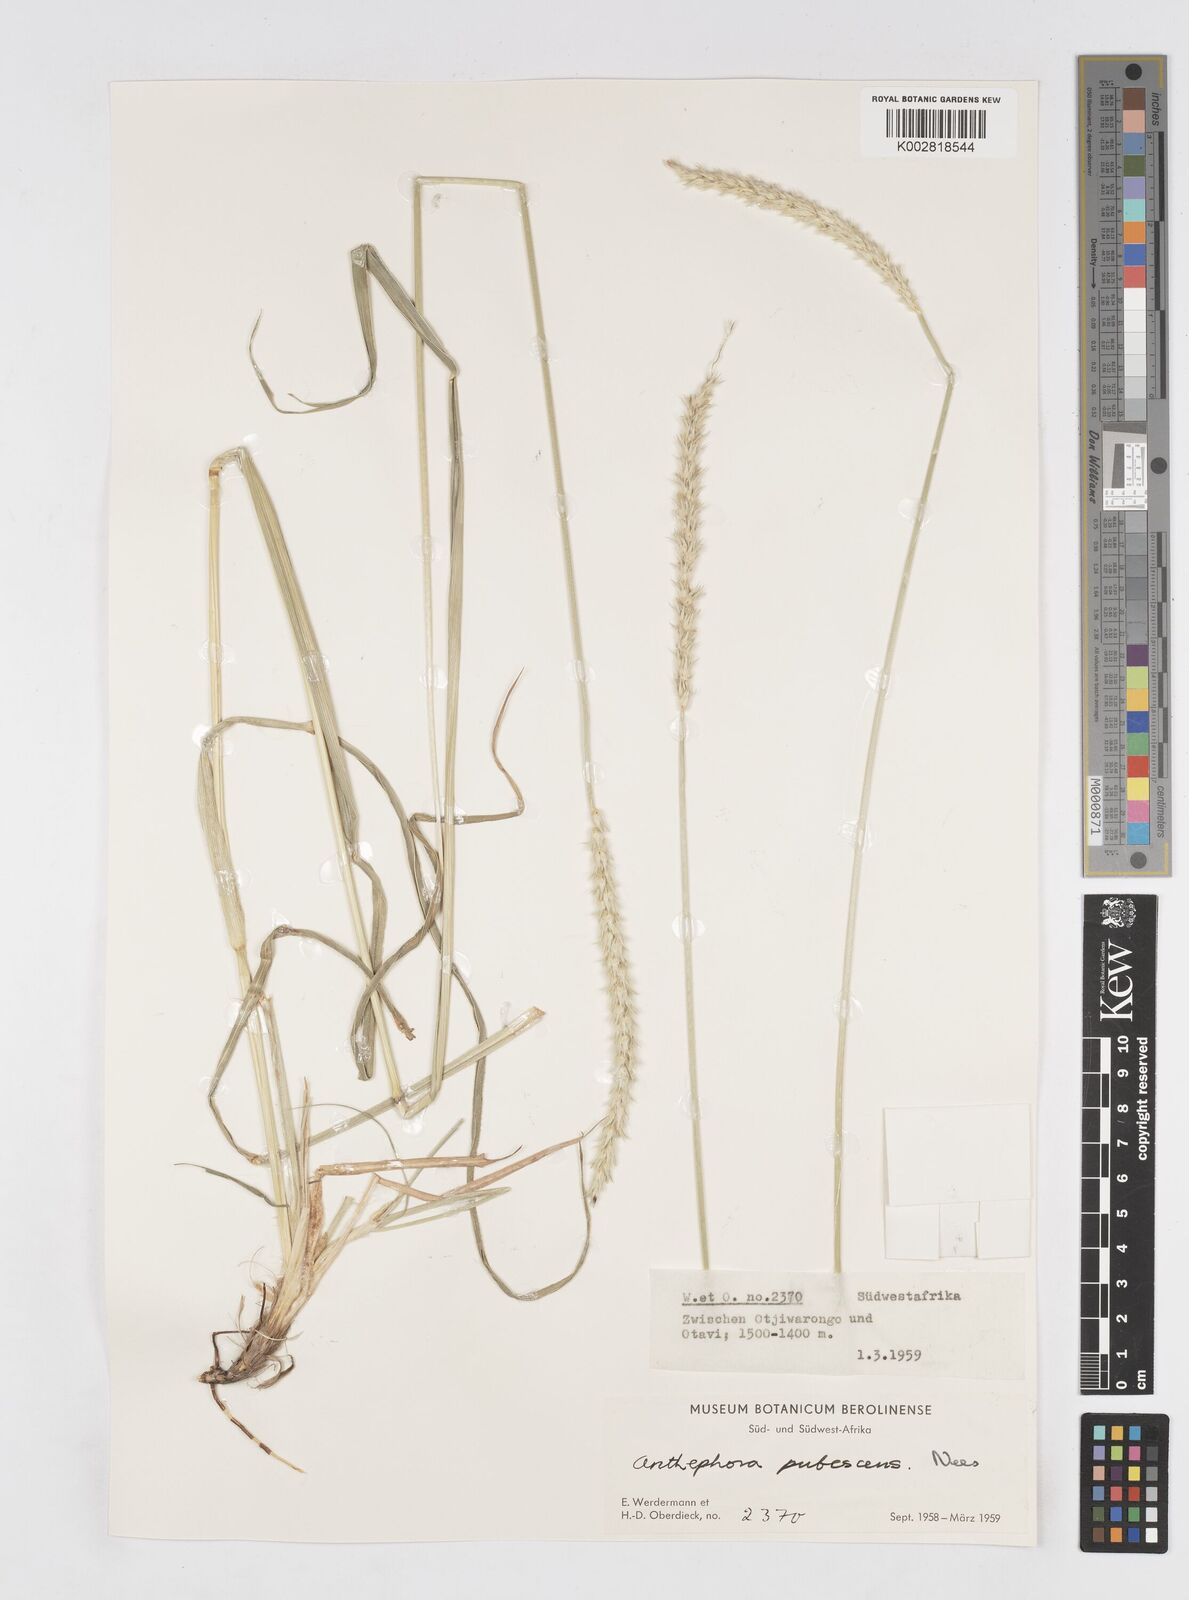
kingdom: Plantae
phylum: Tracheophyta
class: Liliopsida
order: Poales
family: Poaceae
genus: Anthephora
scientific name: Anthephora pubescens
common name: Wool grass
